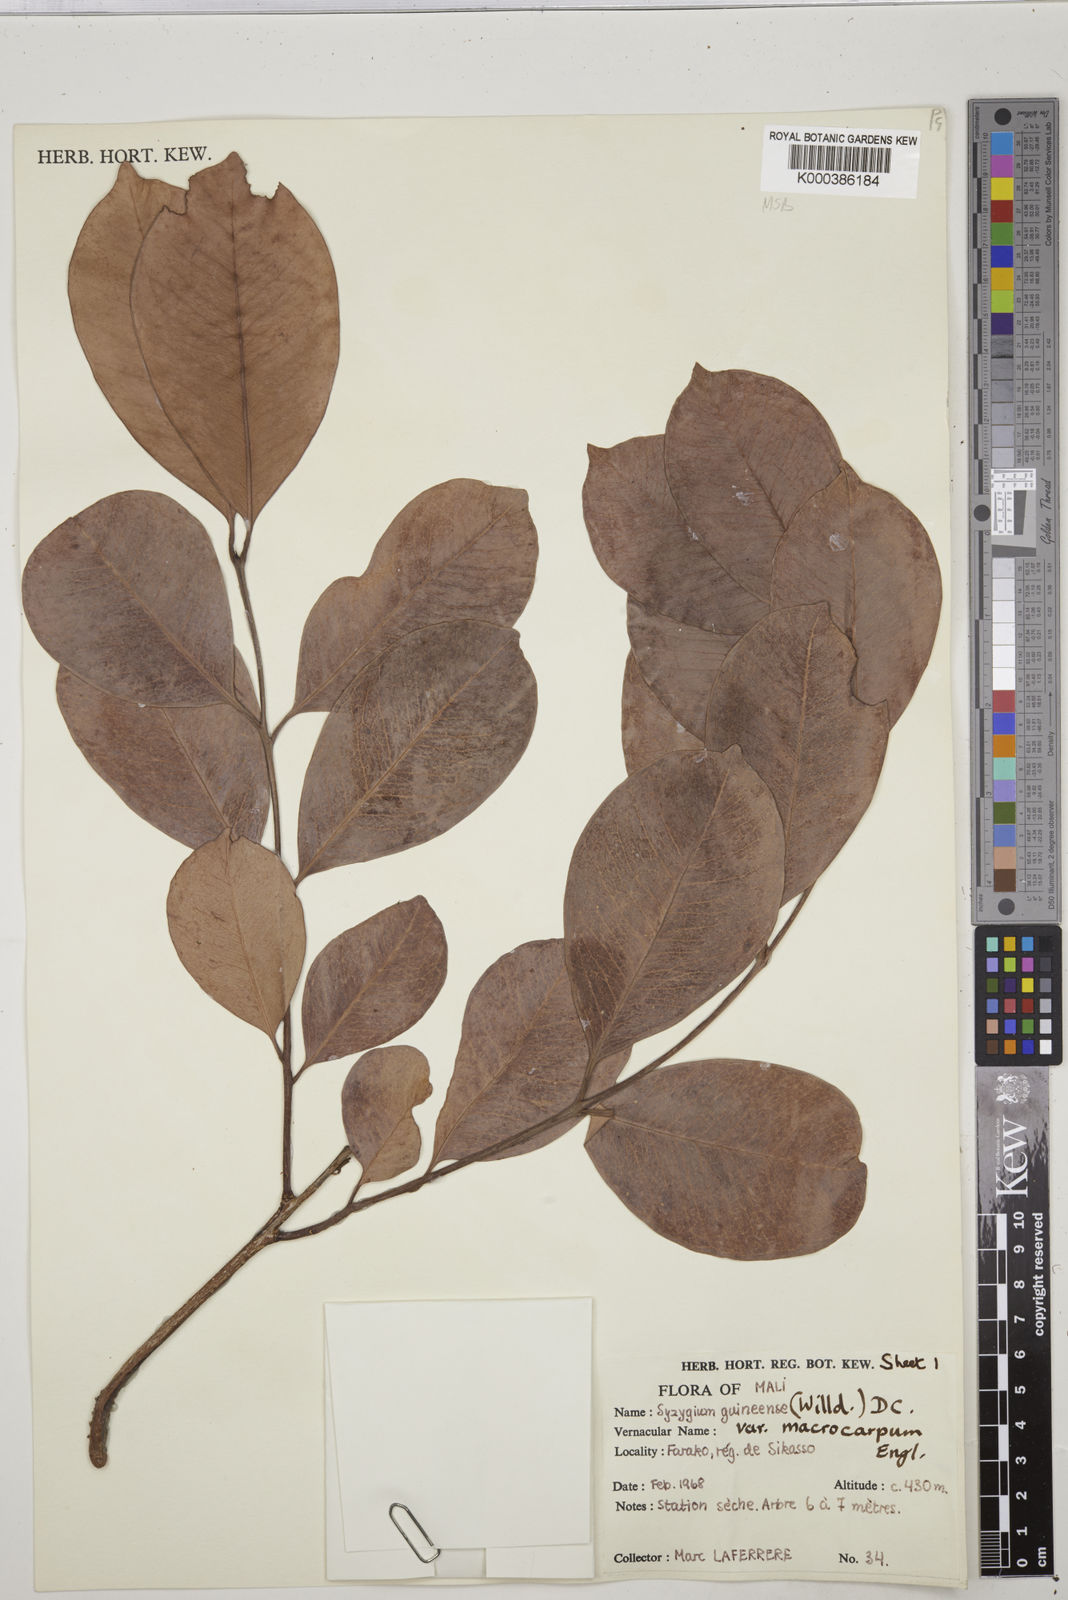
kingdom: Plantae
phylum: Tracheophyta
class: Magnoliopsida
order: Myrtales
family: Myrtaceae
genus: Syzygium
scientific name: Syzygium guineense
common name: Water-pear
